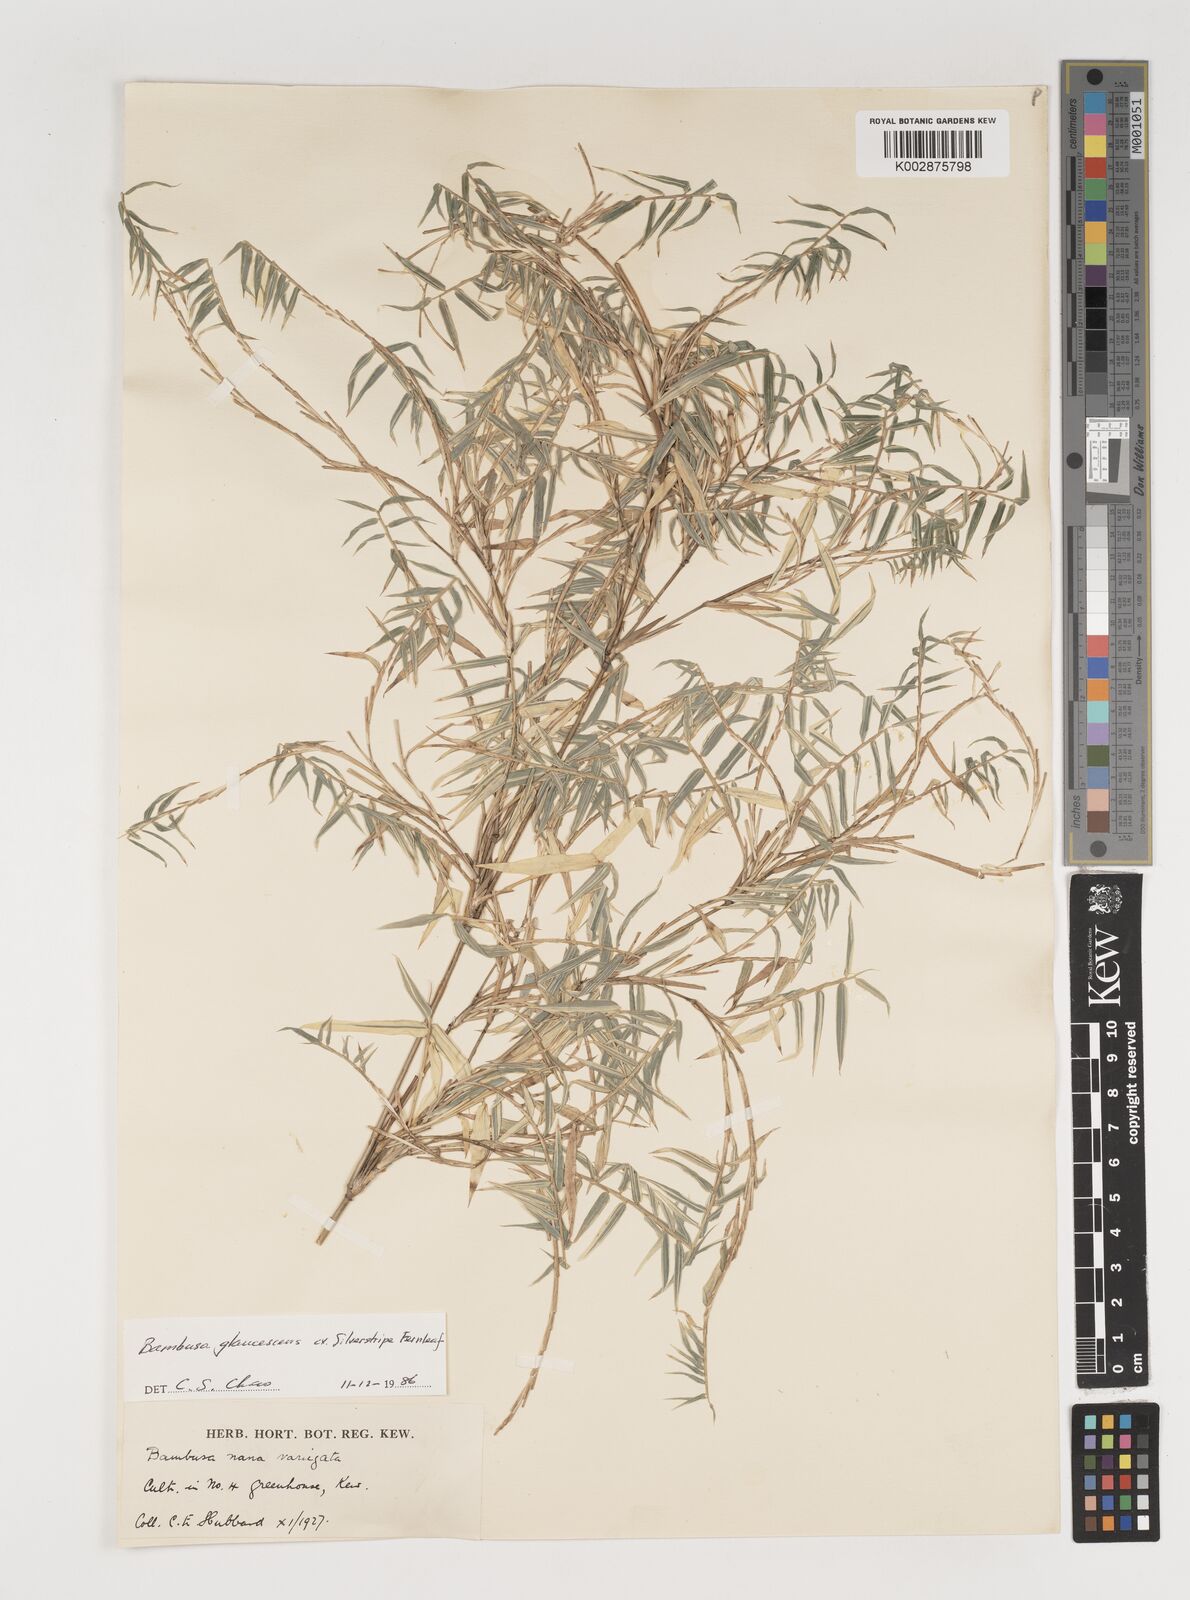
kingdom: Plantae
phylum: Tracheophyta
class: Liliopsida
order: Poales
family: Poaceae
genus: Bambusa
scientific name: Bambusa multiplex
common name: Hedge bamboo
